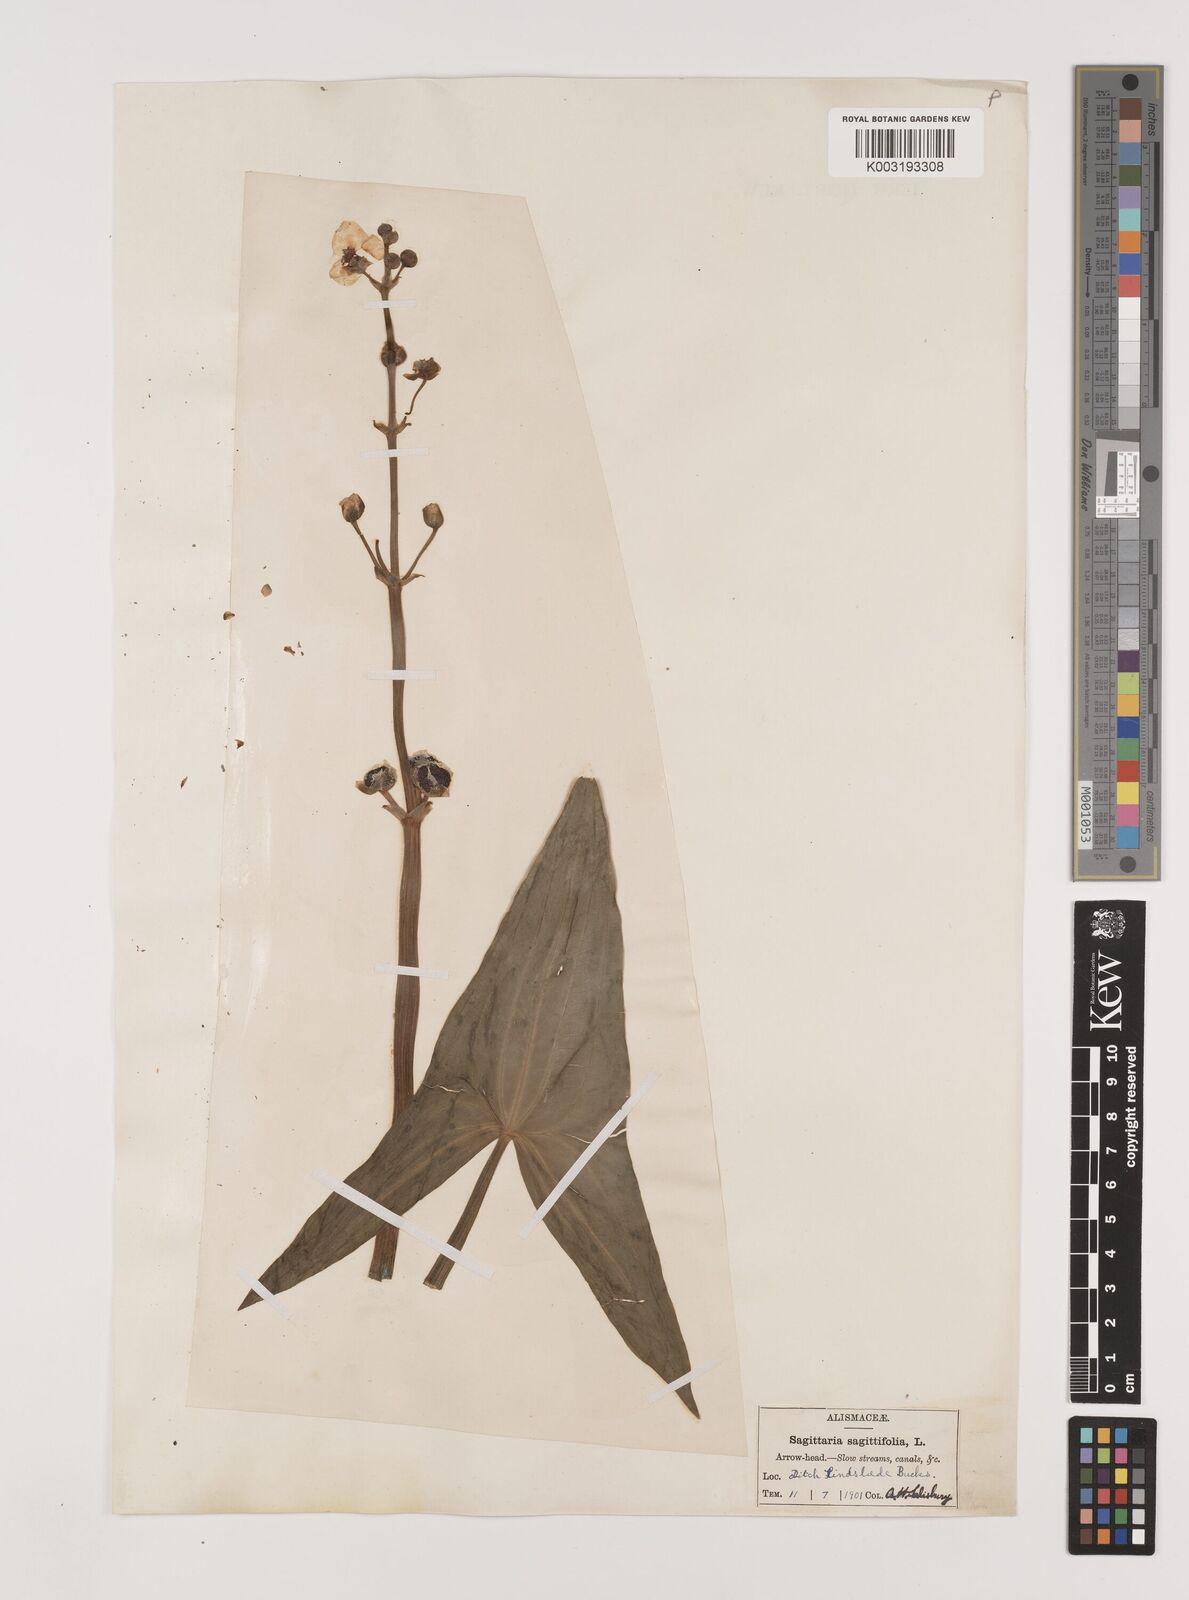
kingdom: Plantae
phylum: Tracheophyta
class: Liliopsida
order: Alismatales
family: Alismataceae
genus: Sagittaria
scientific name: Sagittaria sagittifolia
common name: Arrowhead
